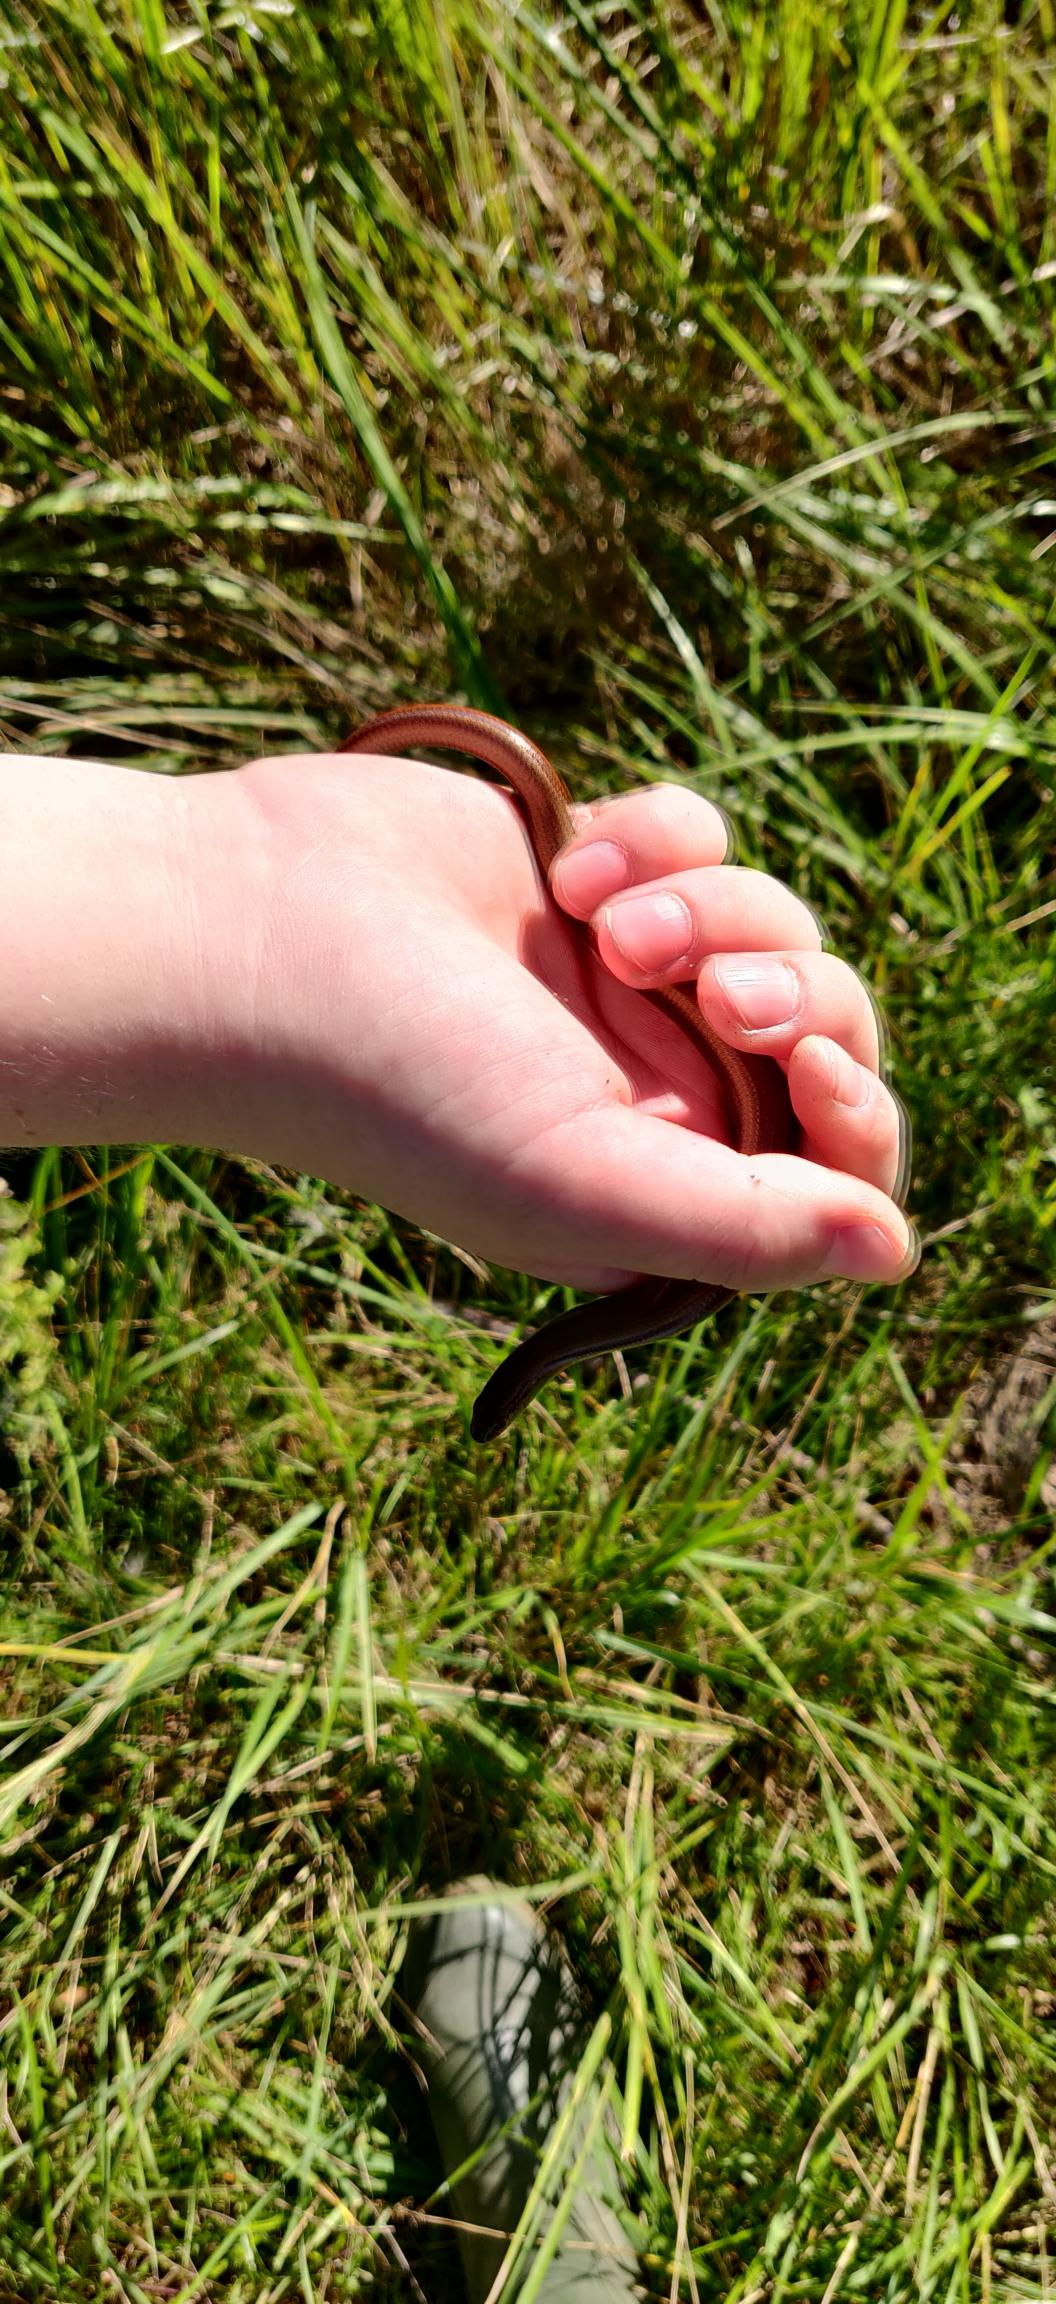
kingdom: Animalia
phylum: Chordata
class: Squamata
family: Anguidae
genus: Anguis
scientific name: Anguis fragilis
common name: Stålorm
